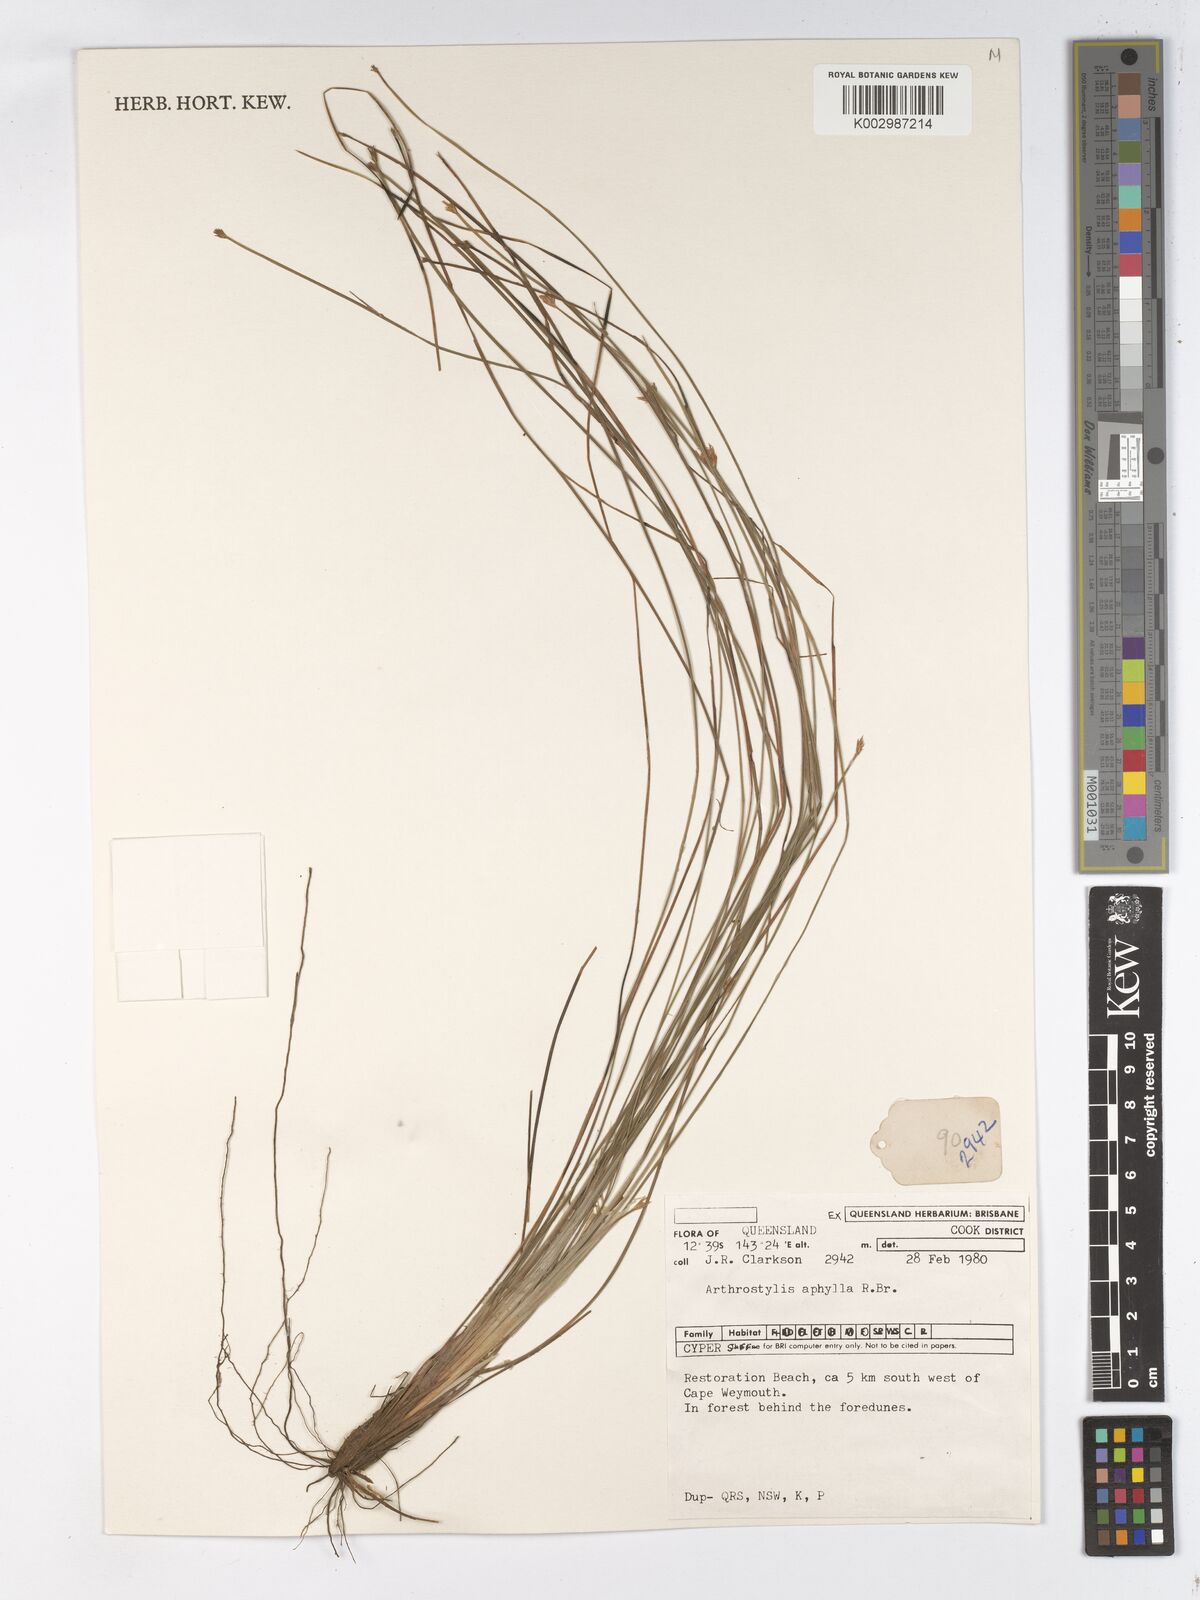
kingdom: Plantae
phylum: Tracheophyta
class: Liliopsida
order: Poales
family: Cyperaceae
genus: Arthrostylis
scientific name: Arthrostylis aphylla
